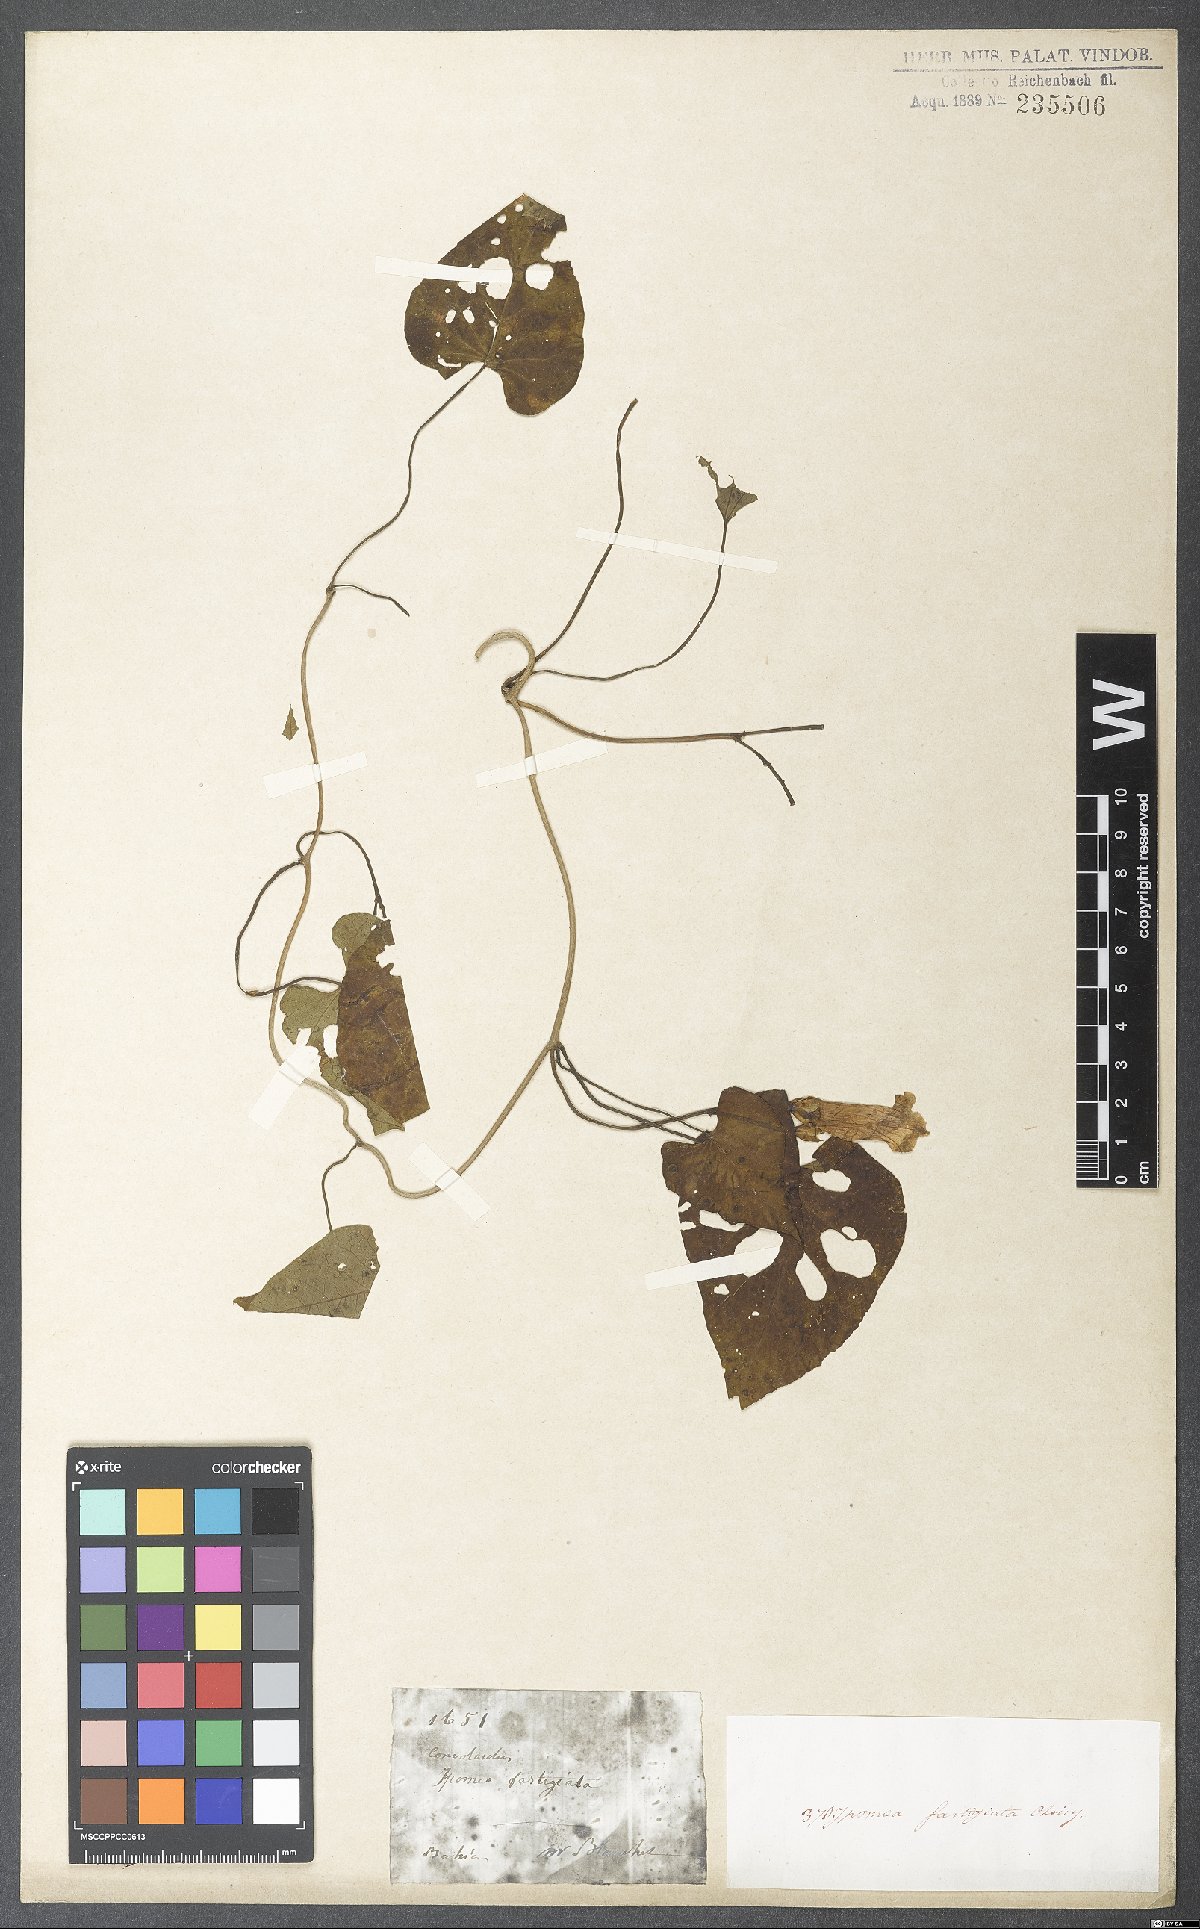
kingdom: Plantae
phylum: Tracheophyta
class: Magnoliopsida
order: Solanales
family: Convolvulaceae
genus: Ipomoea
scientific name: Ipomoea batatas
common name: Sweet-potato
